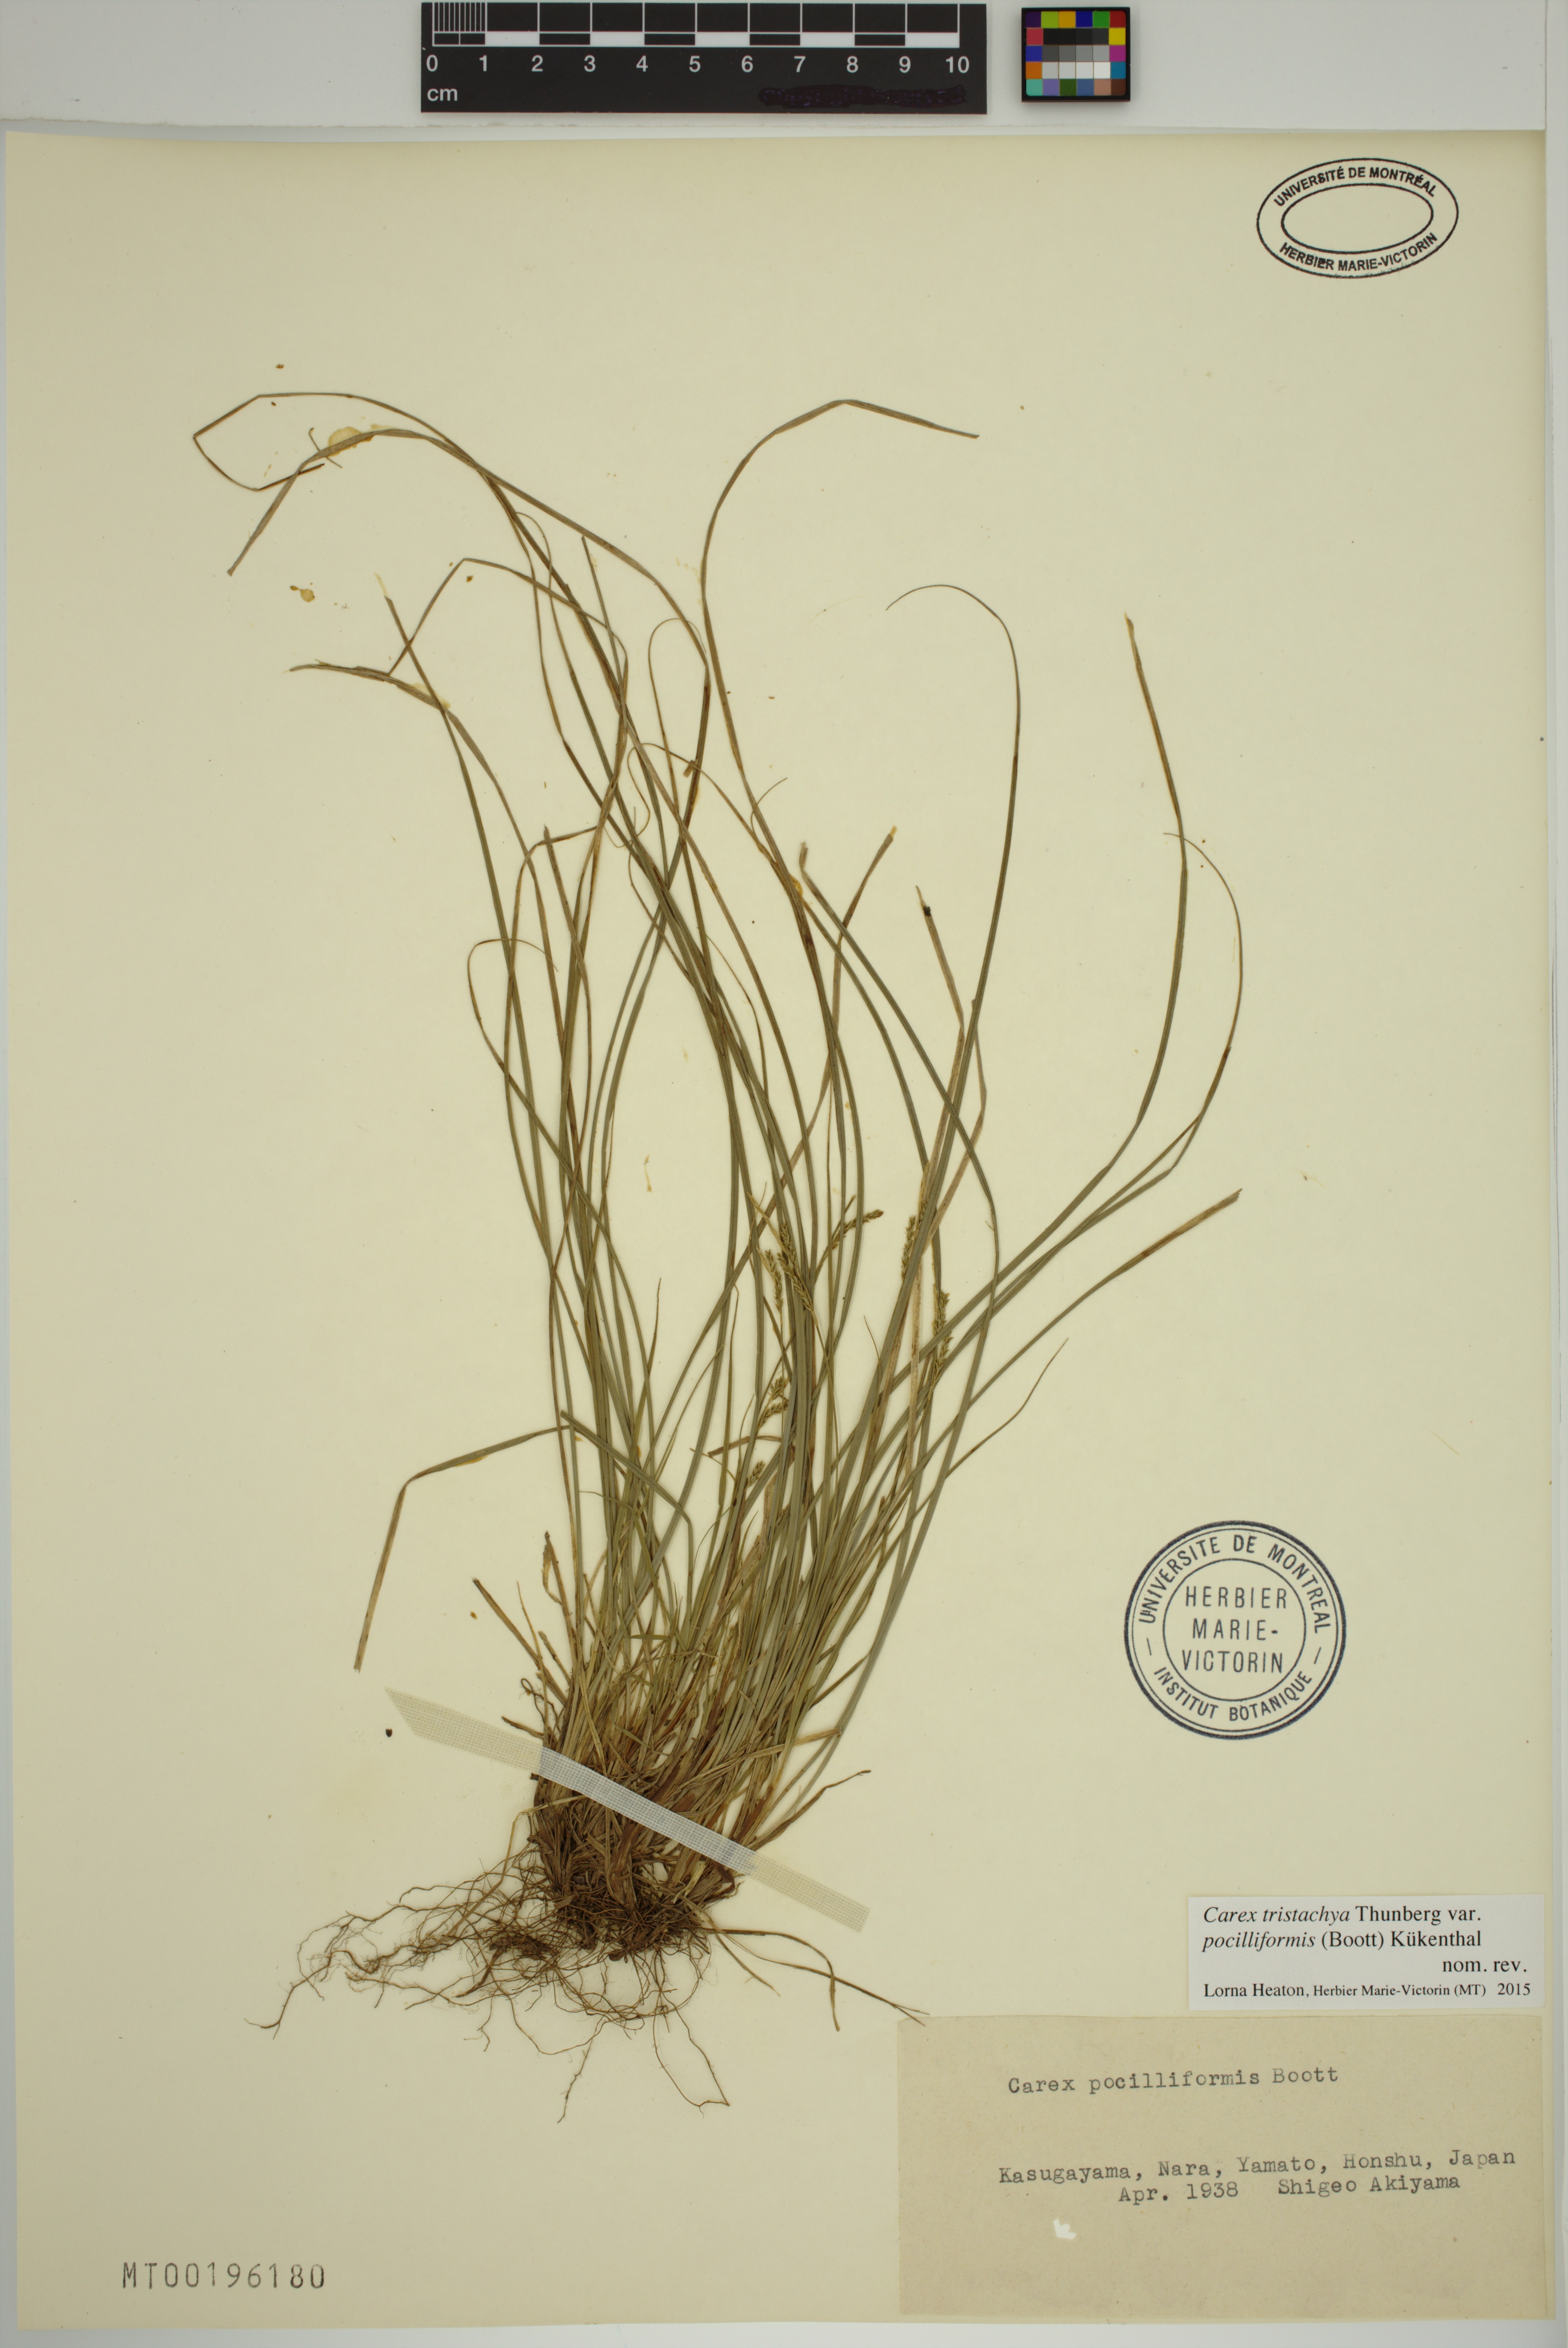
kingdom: Plantae
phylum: Tracheophyta
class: Liliopsida
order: Poales
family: Cyperaceae
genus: Carex
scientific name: Carex tristachya
